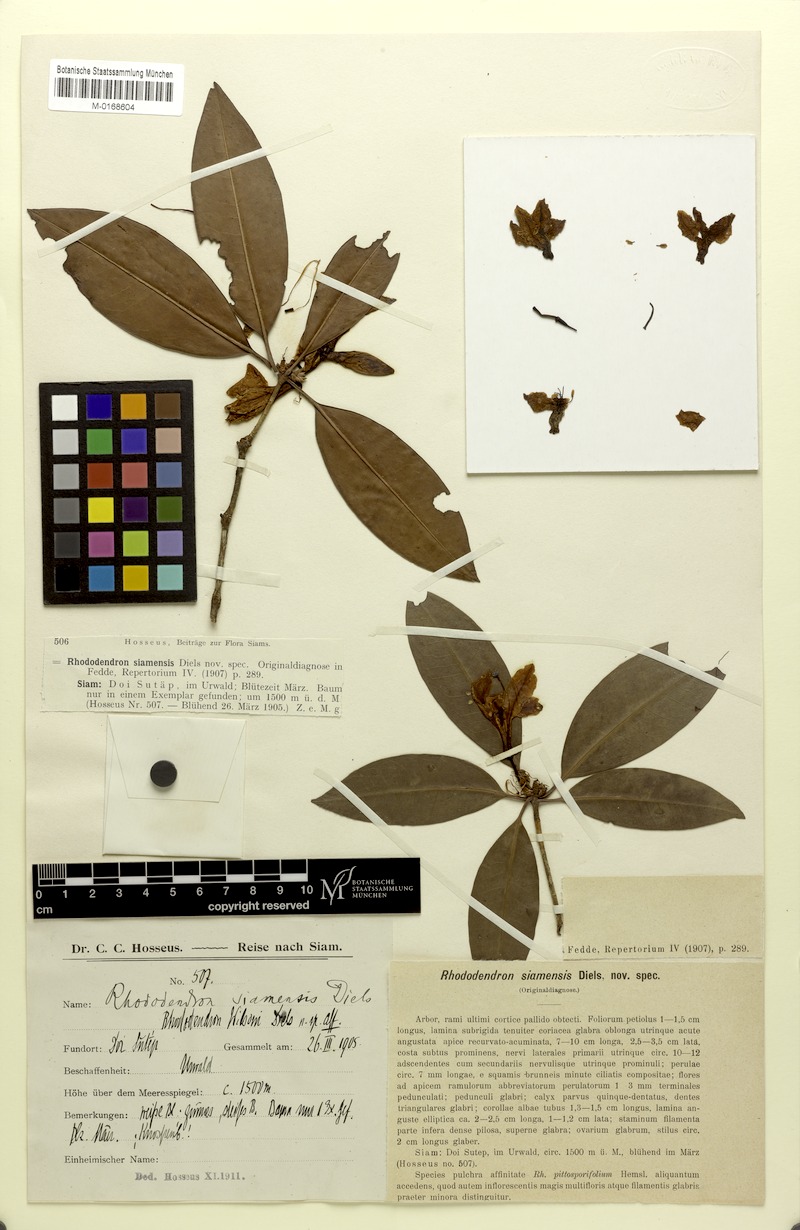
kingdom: Plantae
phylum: Tracheophyta
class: Magnoliopsida
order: Ericales
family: Ericaceae
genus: Rhododendron
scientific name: Rhododendron moulmainense
